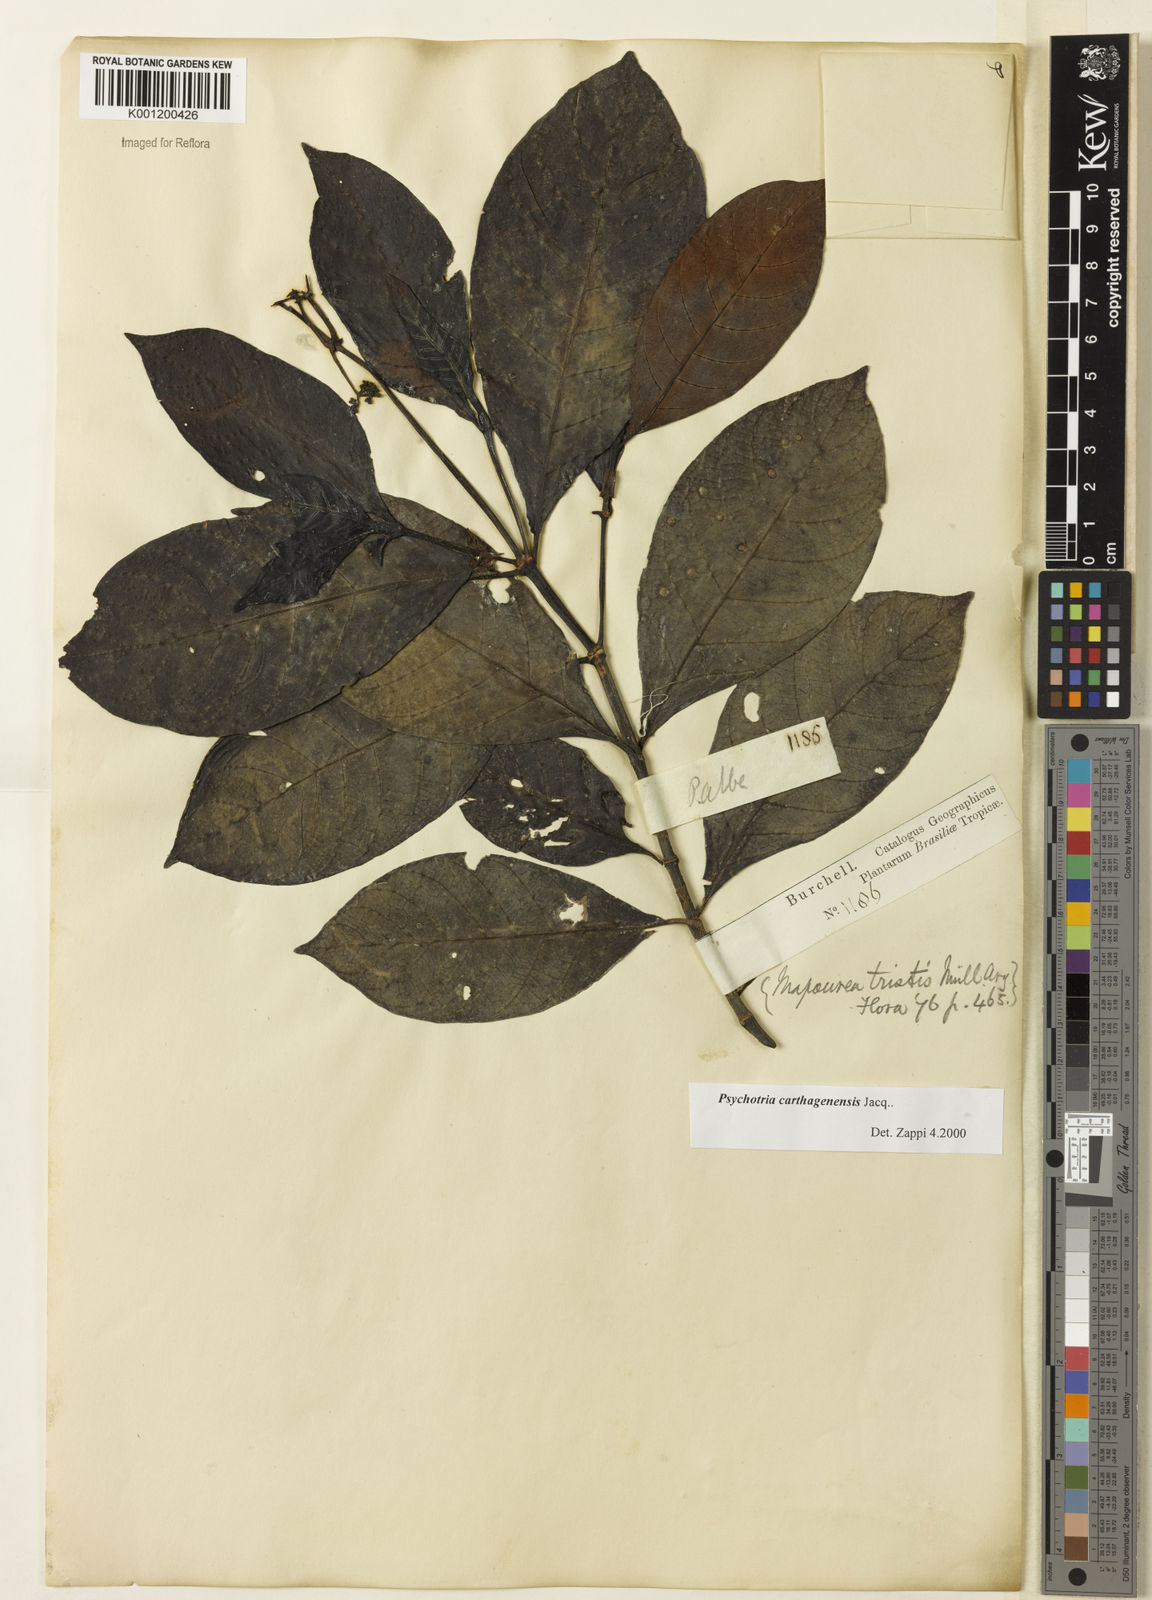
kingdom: Plantae
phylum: Tracheophyta
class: Magnoliopsida
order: Gentianales
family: Rubiaceae
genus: Psychotria
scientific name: Psychotria carthagenensis
